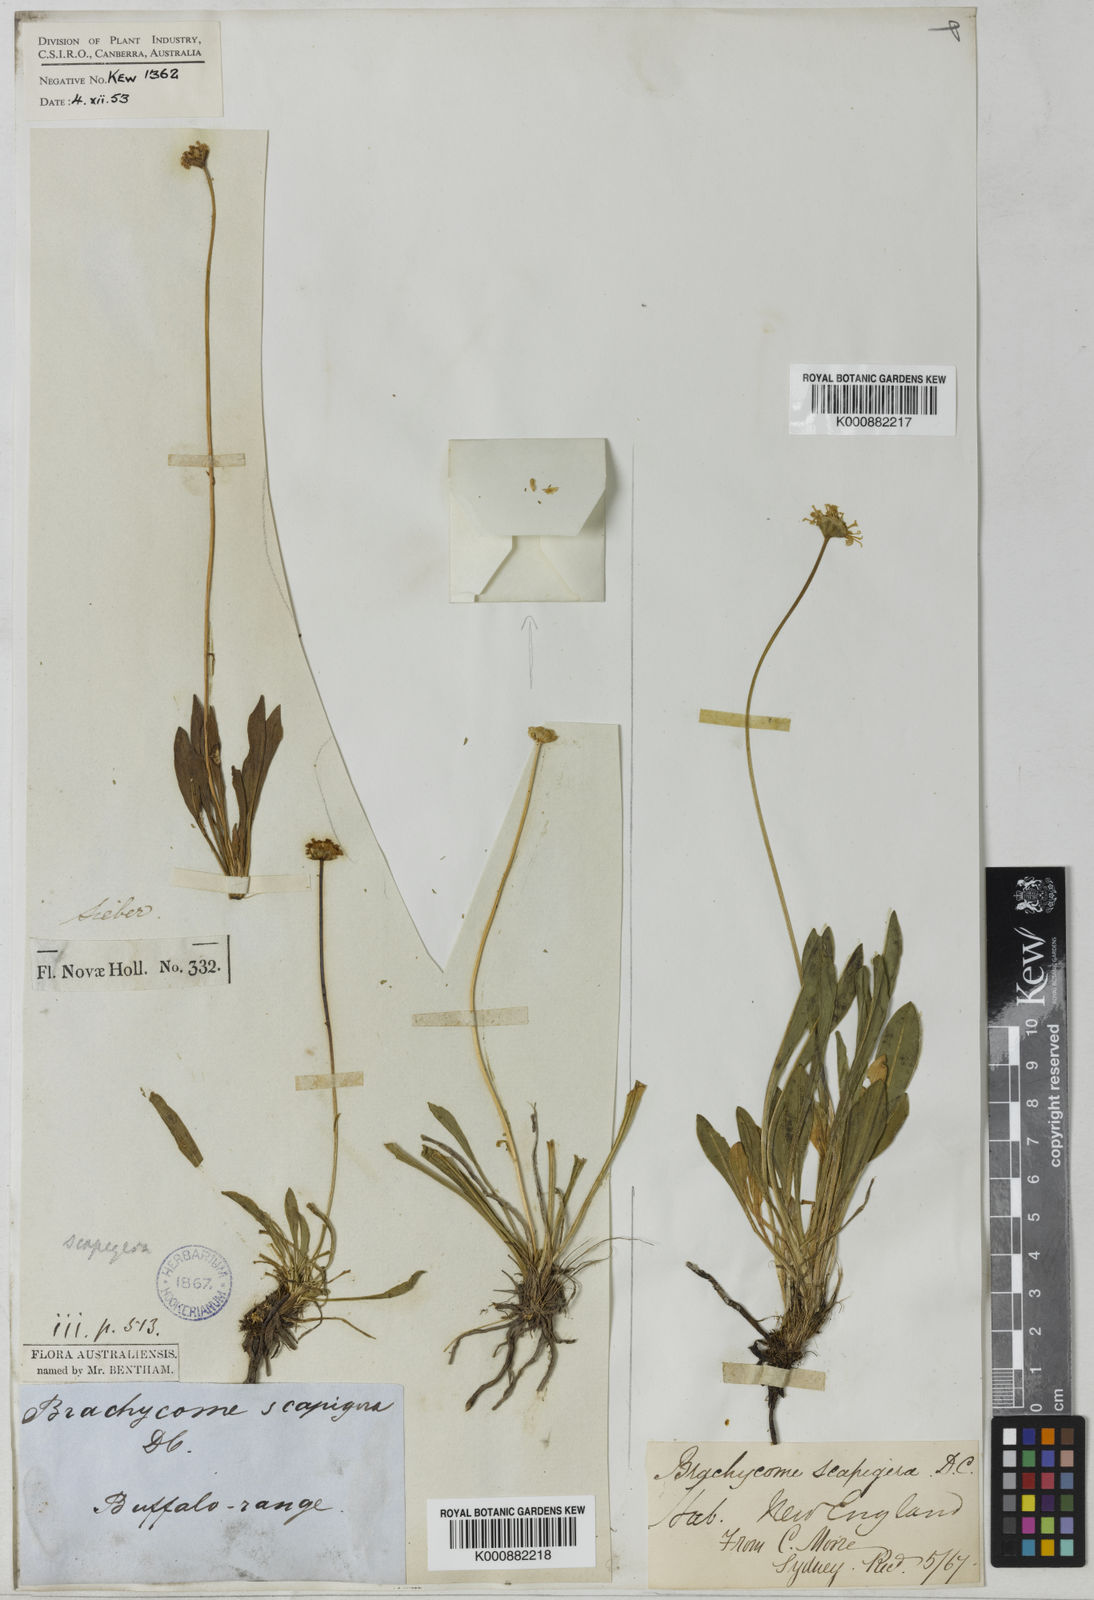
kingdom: Plantae
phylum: Tracheophyta
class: Magnoliopsida
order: Asterales
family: Asteraceae
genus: Brachyscome
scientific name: Brachyscome scapigera
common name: Tufted daisy
